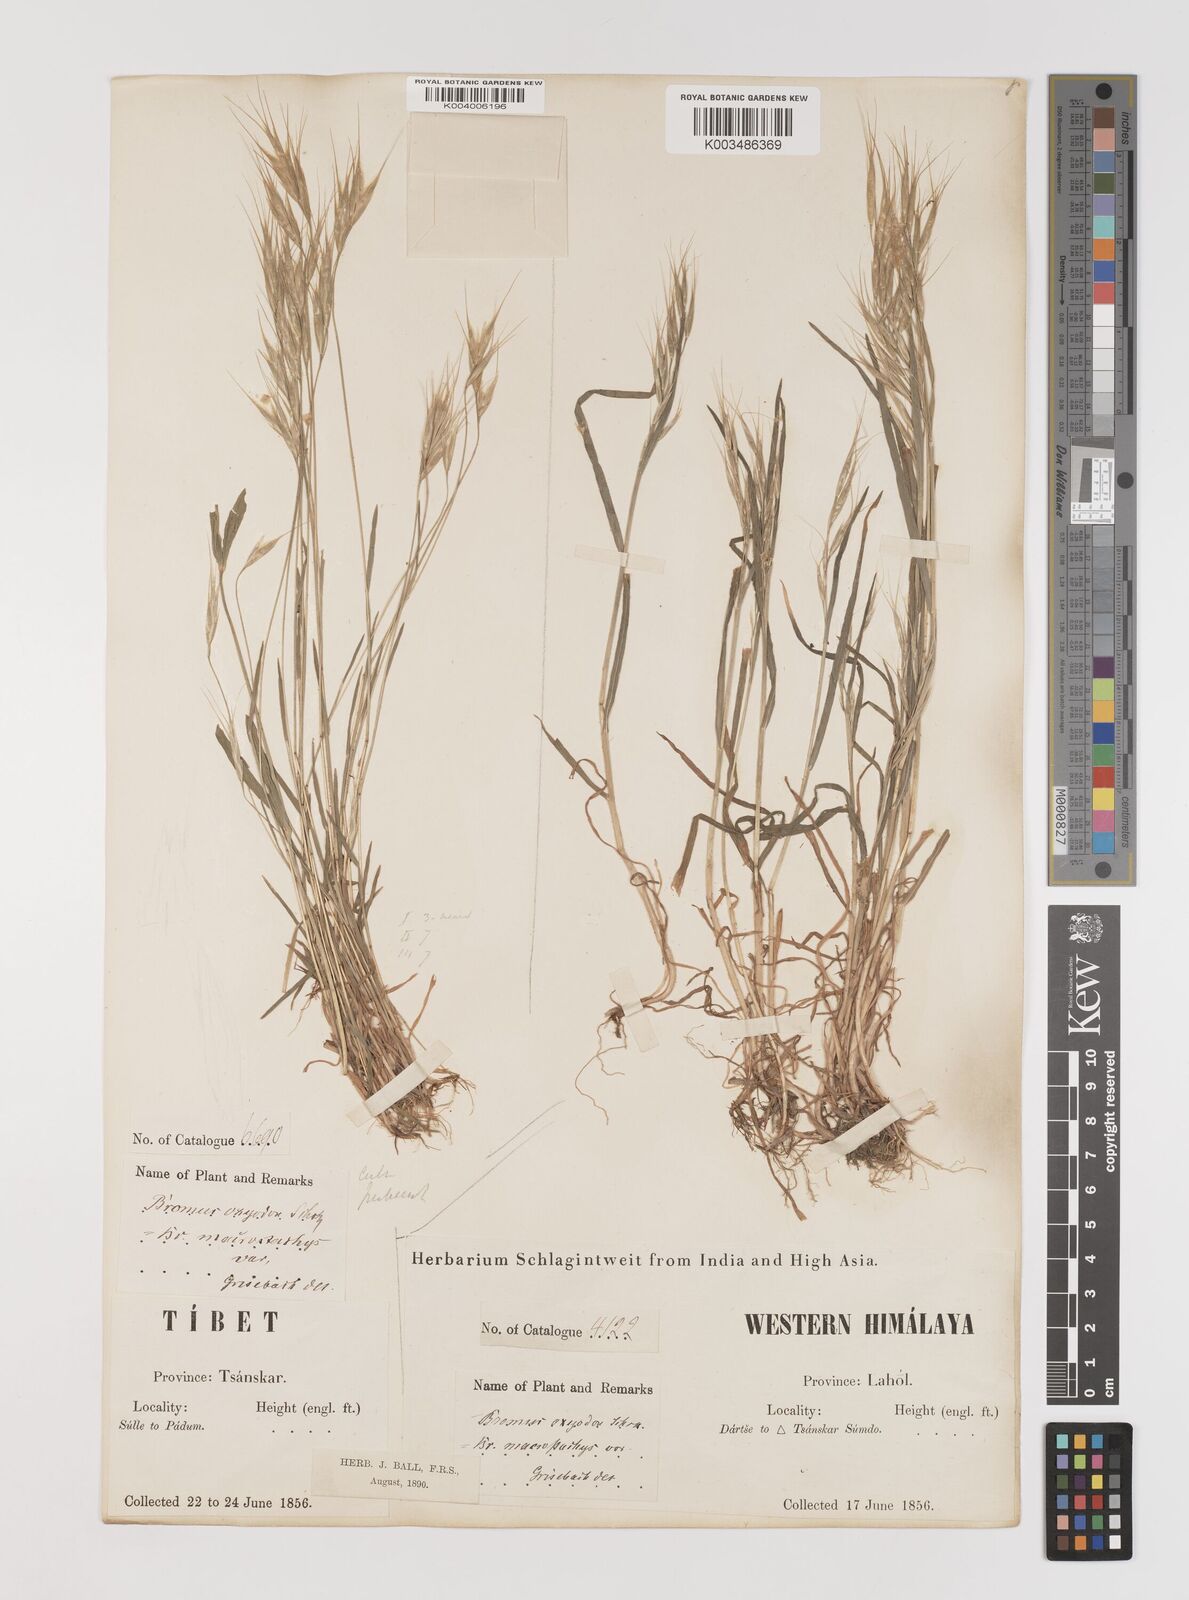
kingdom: Plantae
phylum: Tracheophyta
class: Liliopsida
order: Poales
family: Poaceae
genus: Bromus
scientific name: Bromus oxyodon
